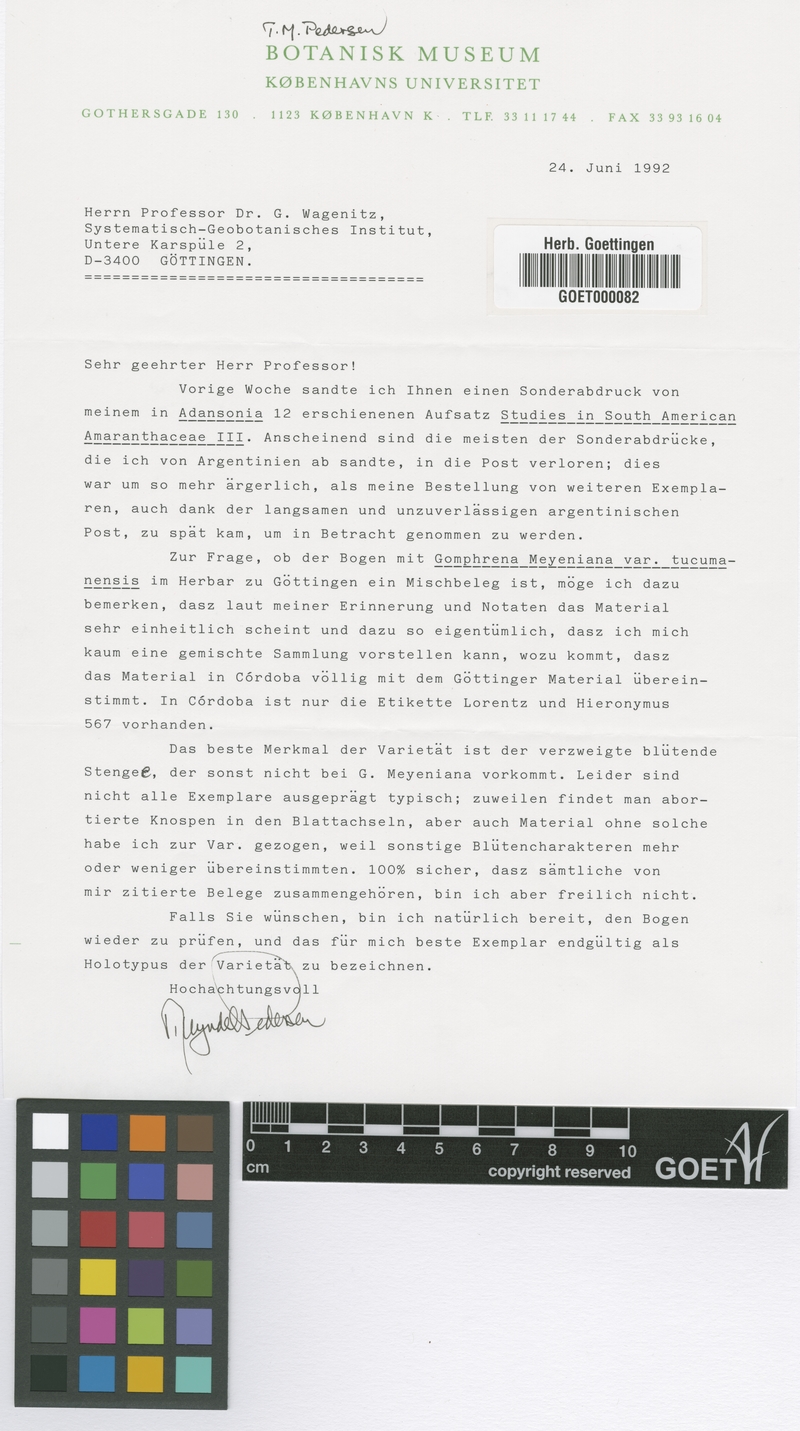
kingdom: Plantae
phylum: Tracheophyta
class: Magnoliopsida
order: Caryophyllales
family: Amaranthaceae
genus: Gomphrena
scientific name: Gomphrena meyeniana
